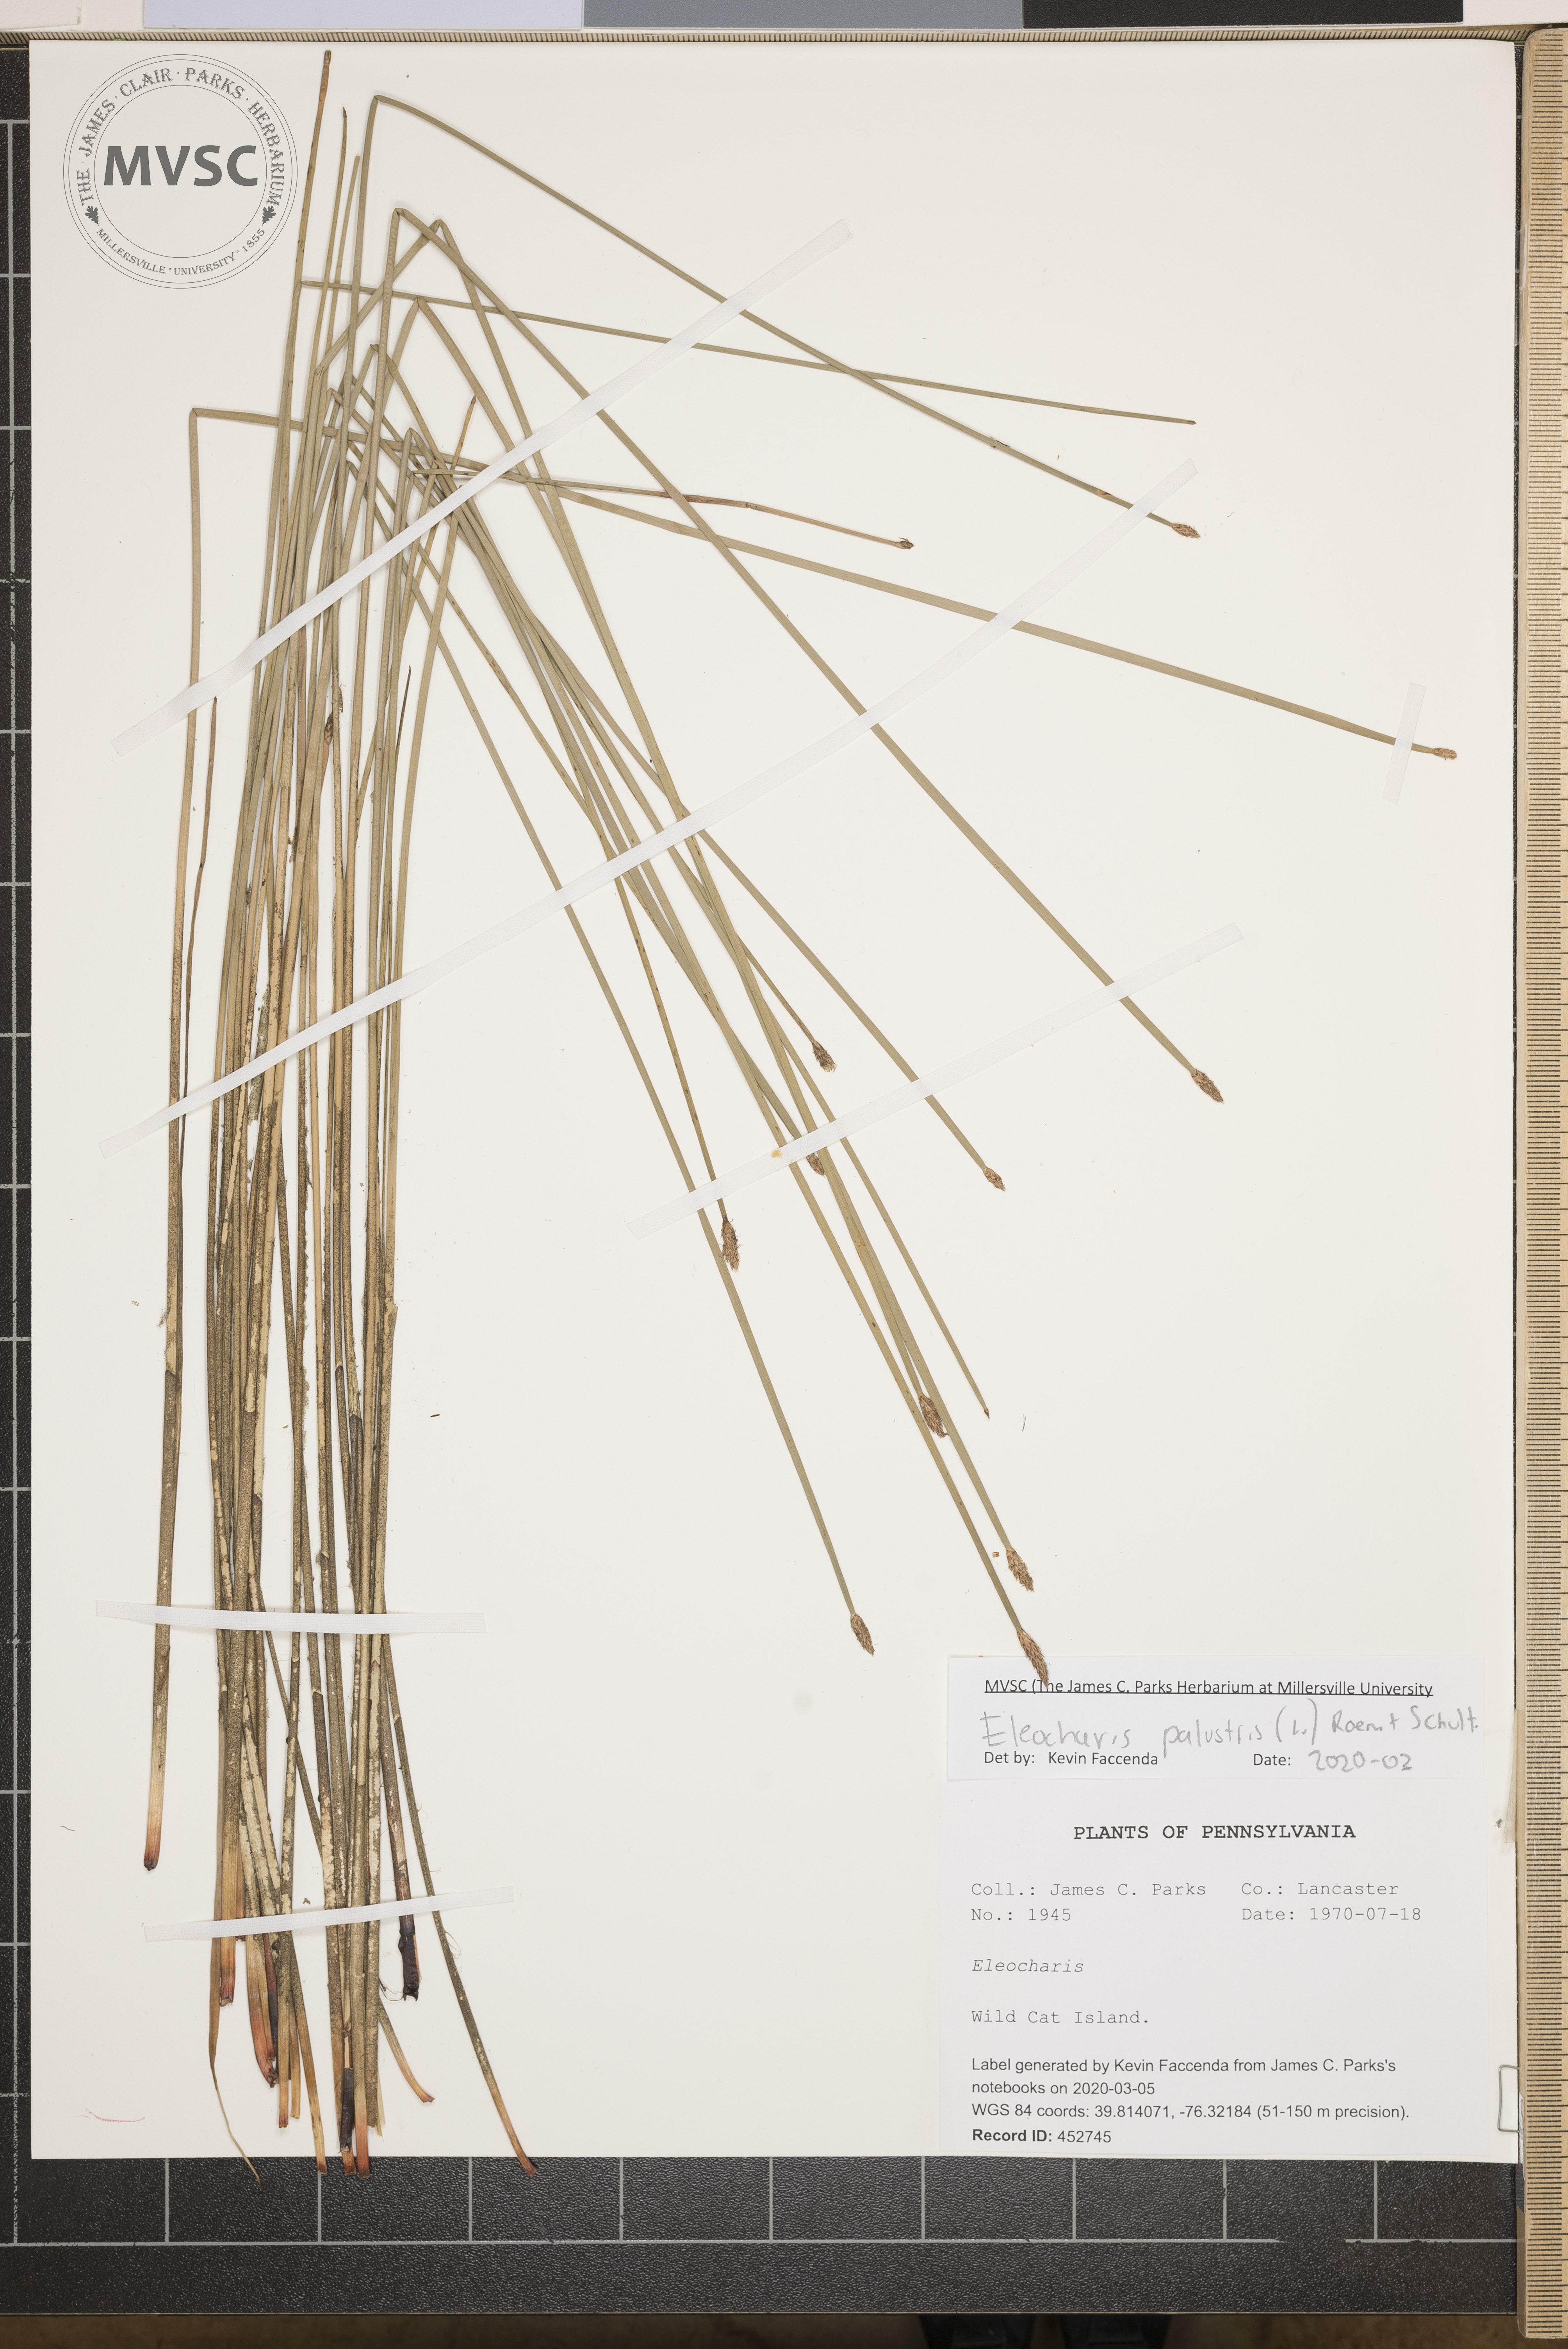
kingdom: Plantae
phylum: Tracheophyta
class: Liliopsida
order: Poales
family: Cyperaceae
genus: Eleocharis
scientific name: Eleocharis palustris
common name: Common spike-rush
